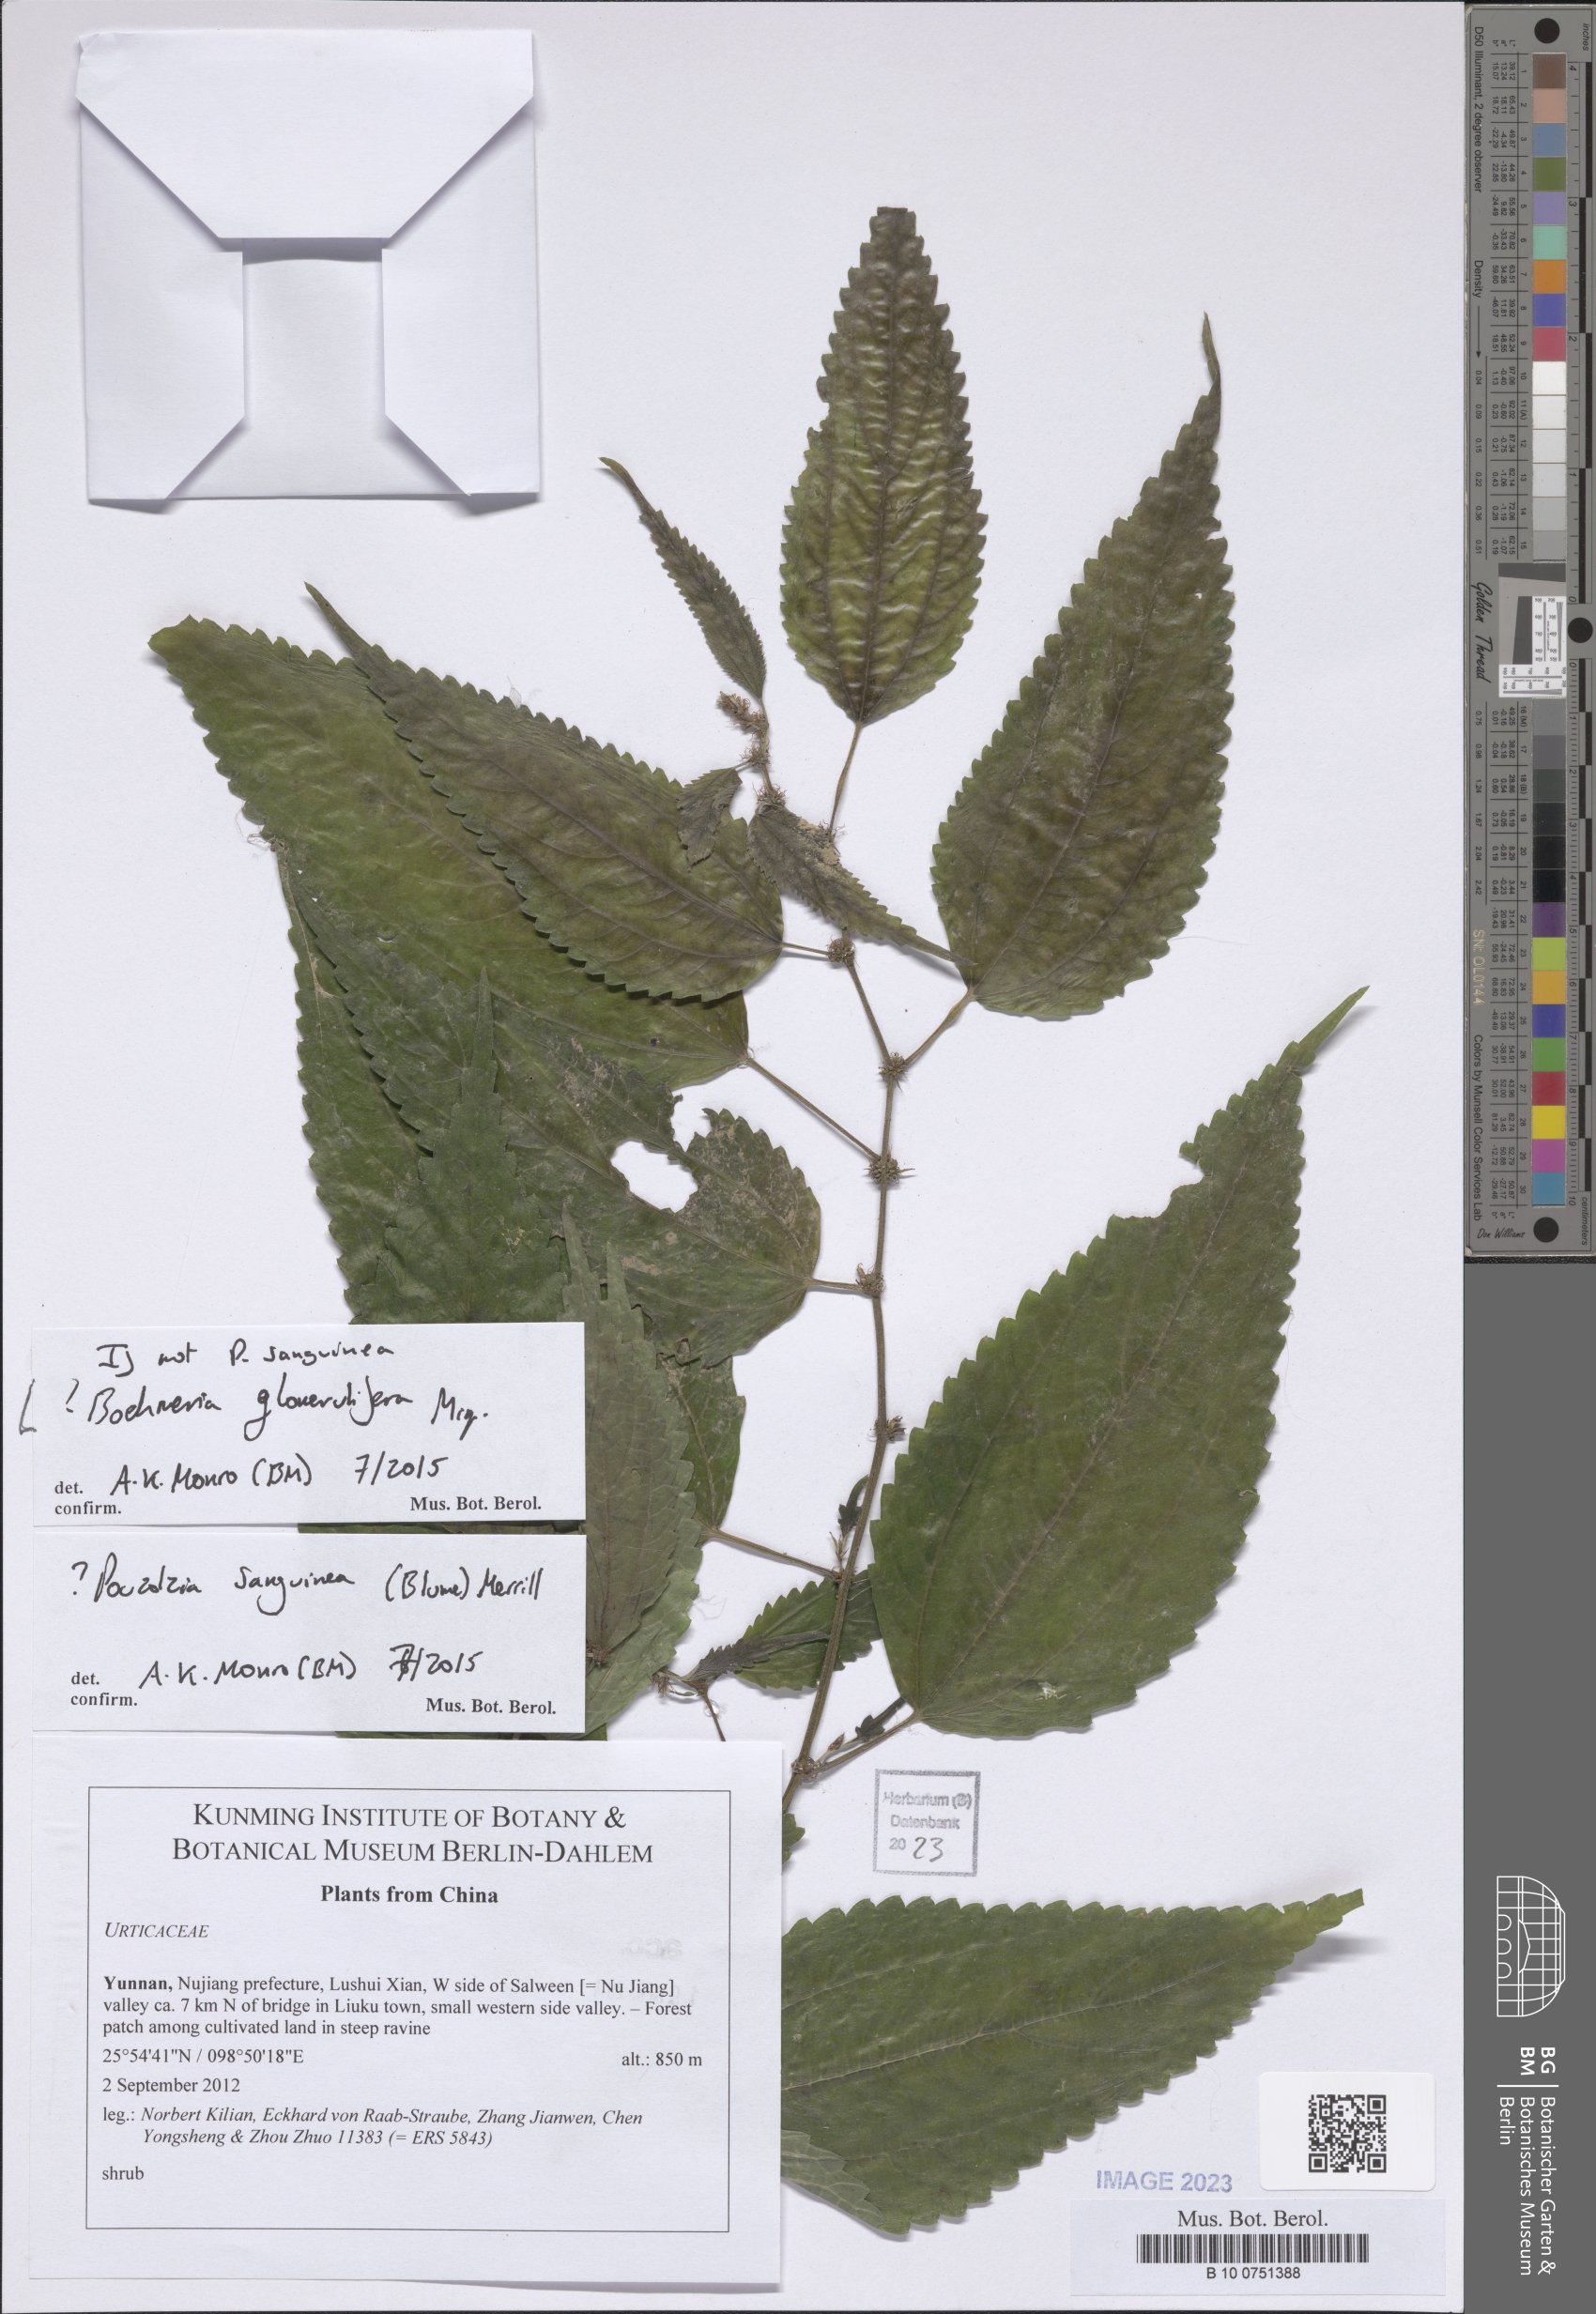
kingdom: Plantae
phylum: Tracheophyta
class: Magnoliopsida
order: Rosales
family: Urticaceae
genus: Boehmeria
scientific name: Boehmeria depauperata
